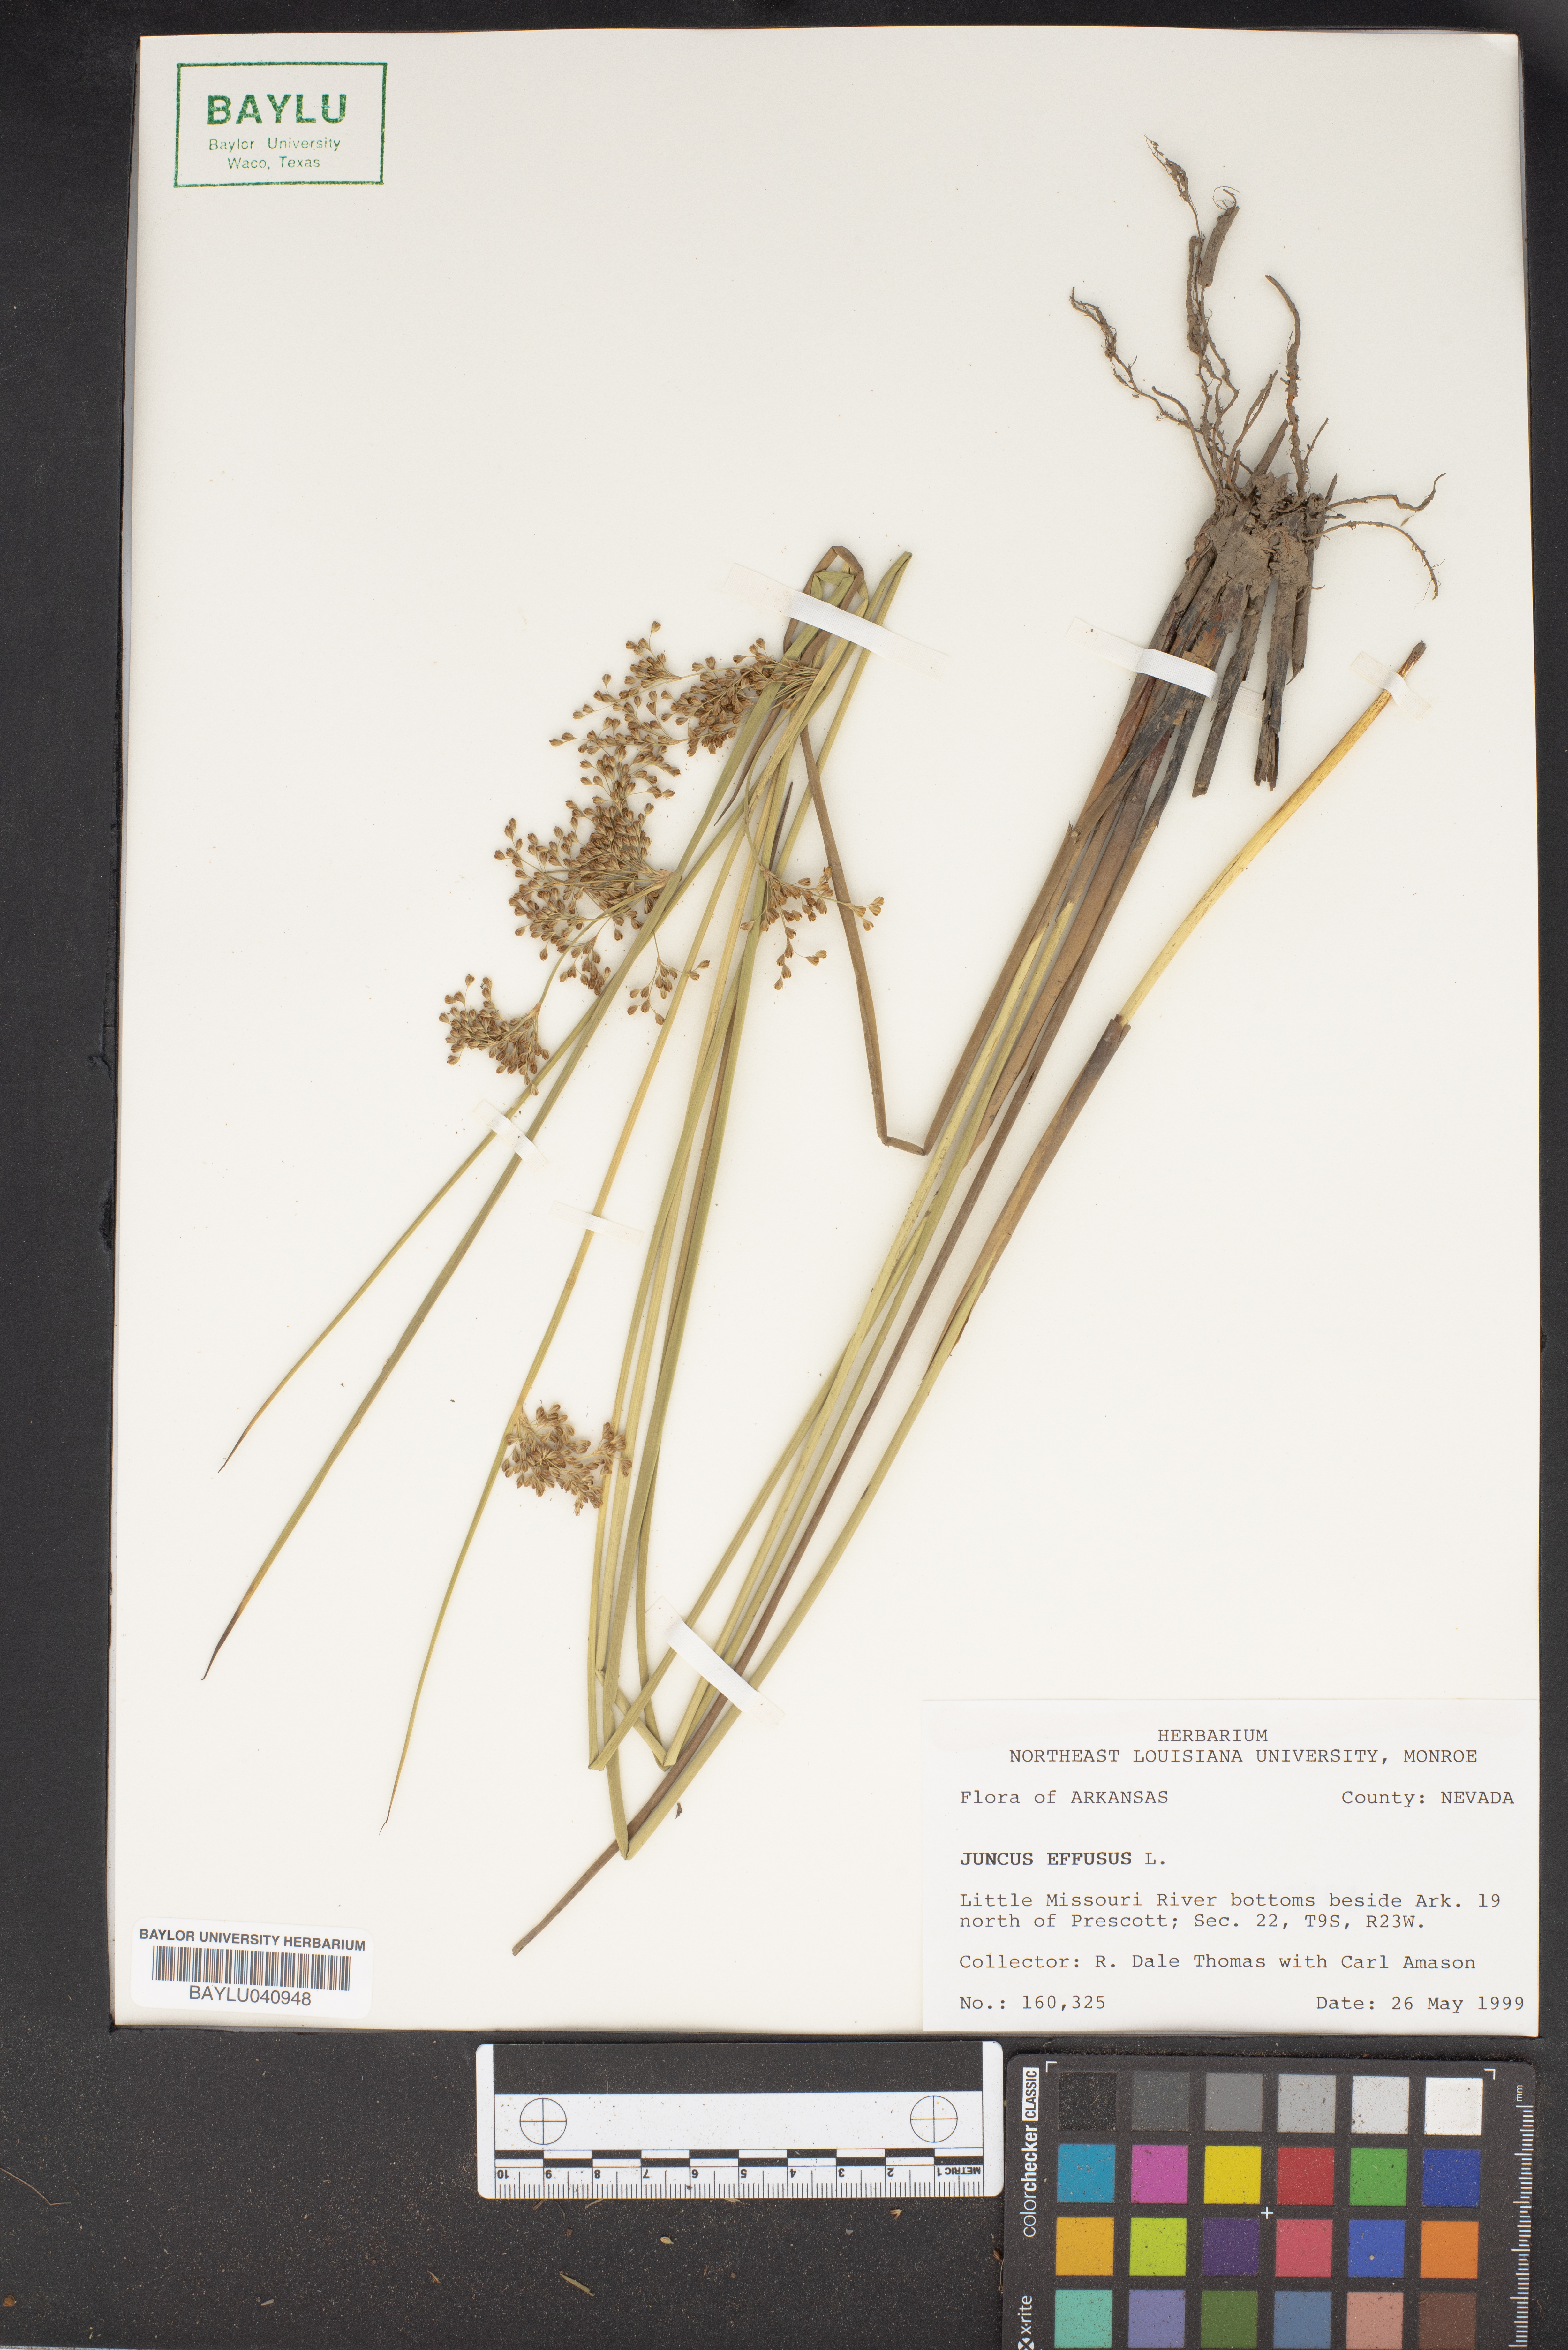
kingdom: Plantae
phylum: Tracheophyta
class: Liliopsida
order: Poales
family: Juncaceae
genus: Juncus
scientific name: Juncus effusus
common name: Soft rush
